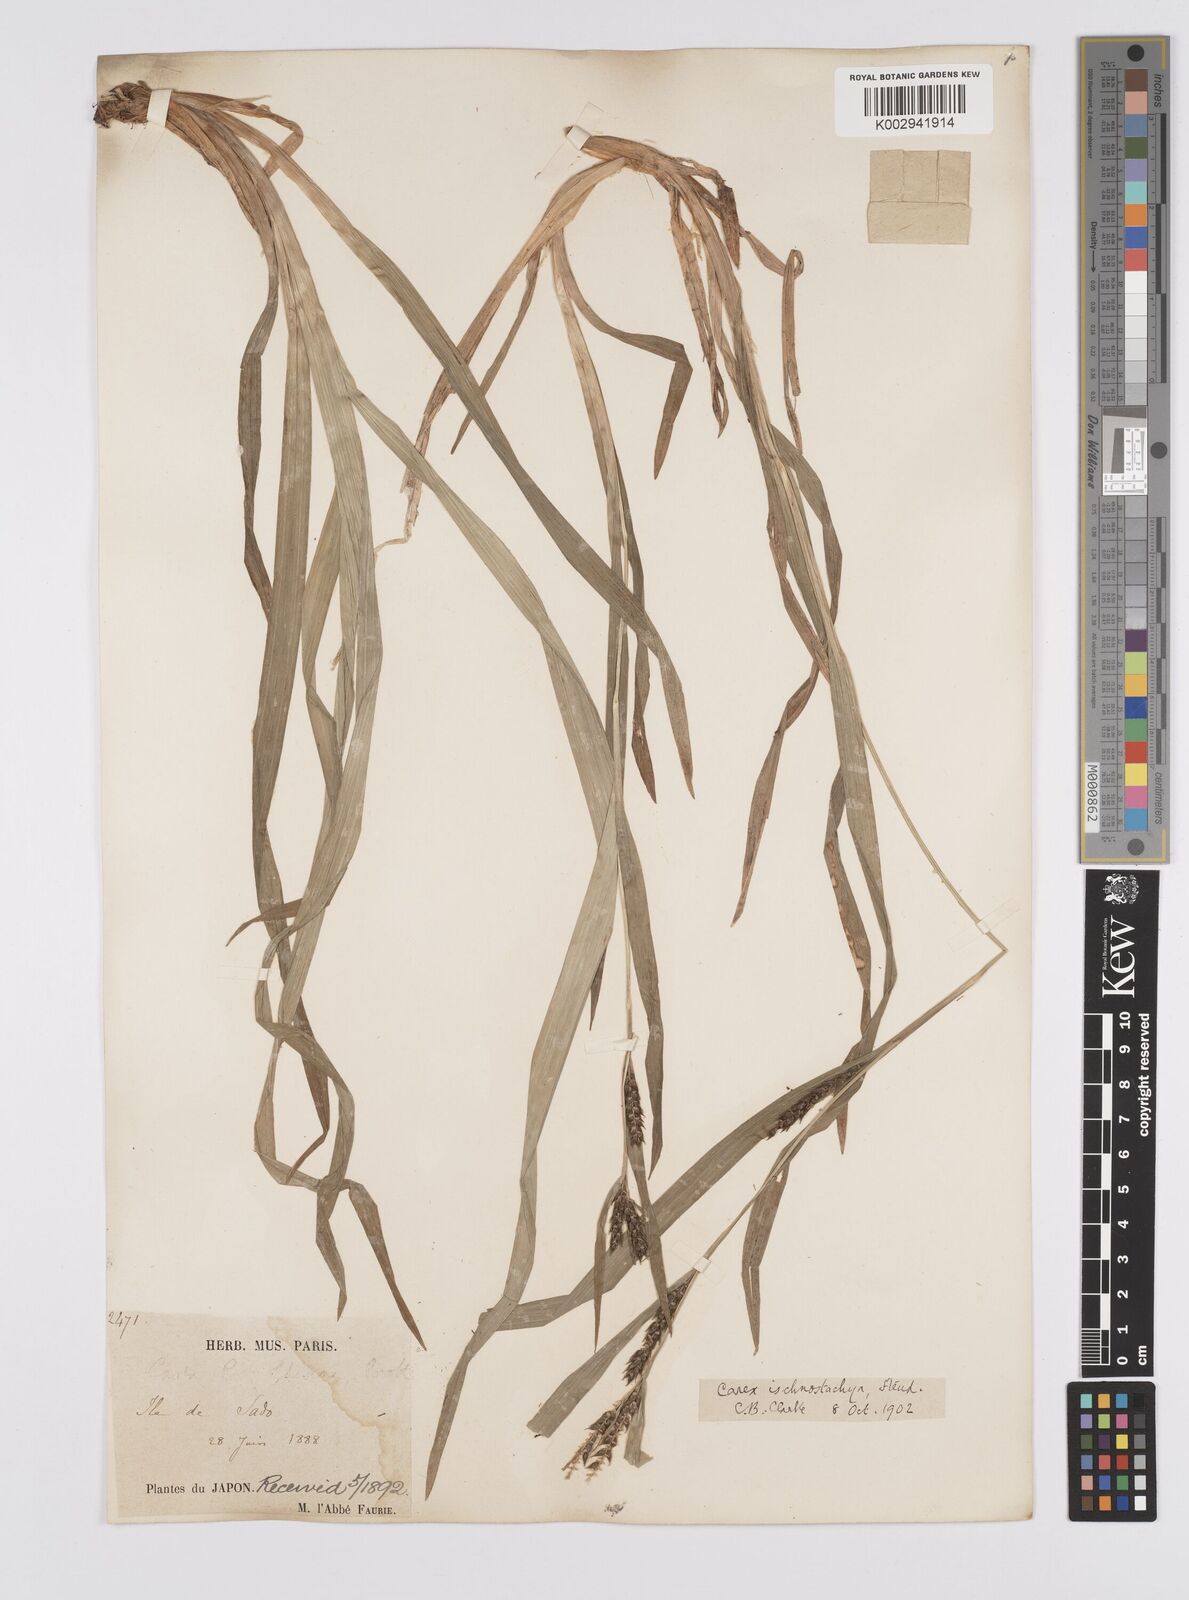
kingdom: Plantae
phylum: Tracheophyta
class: Liliopsida
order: Poales
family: Cyperaceae
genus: Carex
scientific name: Carex ischnostachya
